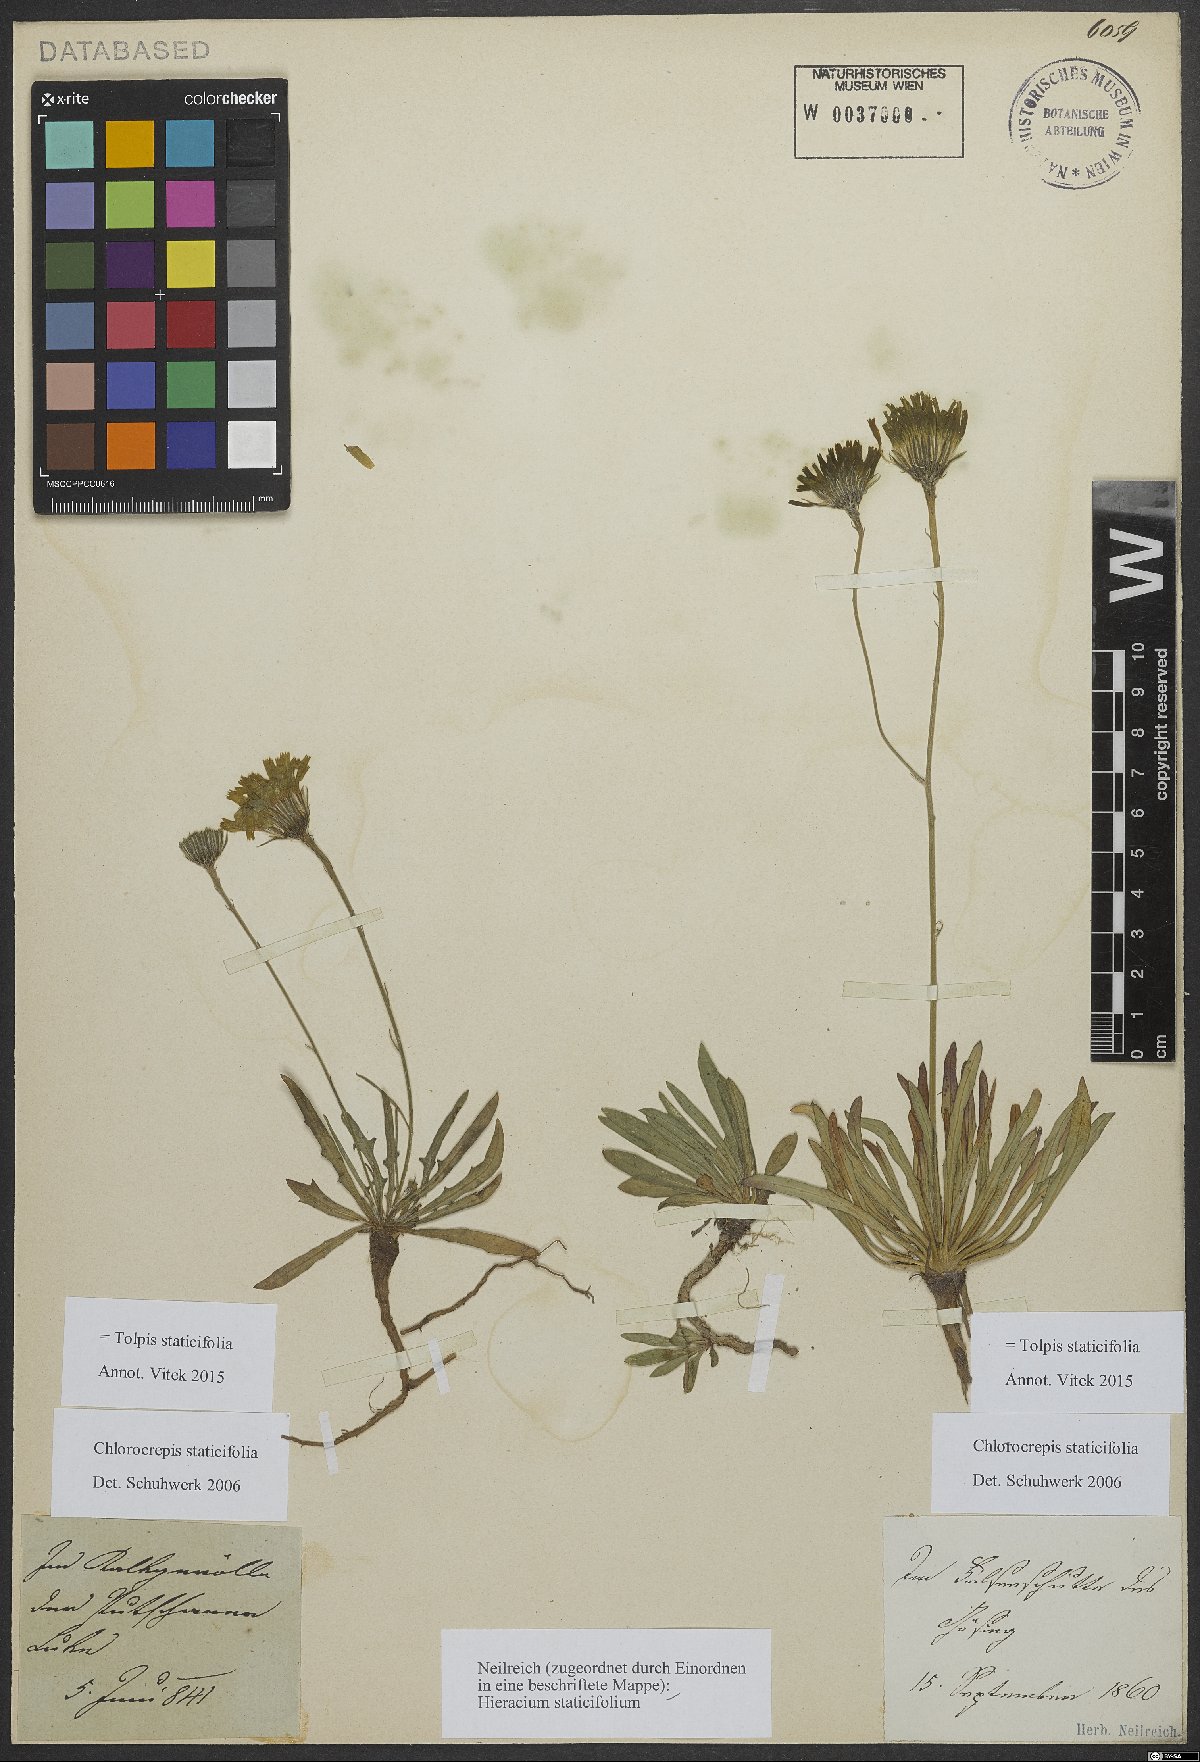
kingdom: Plantae
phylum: Tracheophyta
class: Magnoliopsida
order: Asterales
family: Asteraceae
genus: Tolpis
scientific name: Tolpis staticifolia
